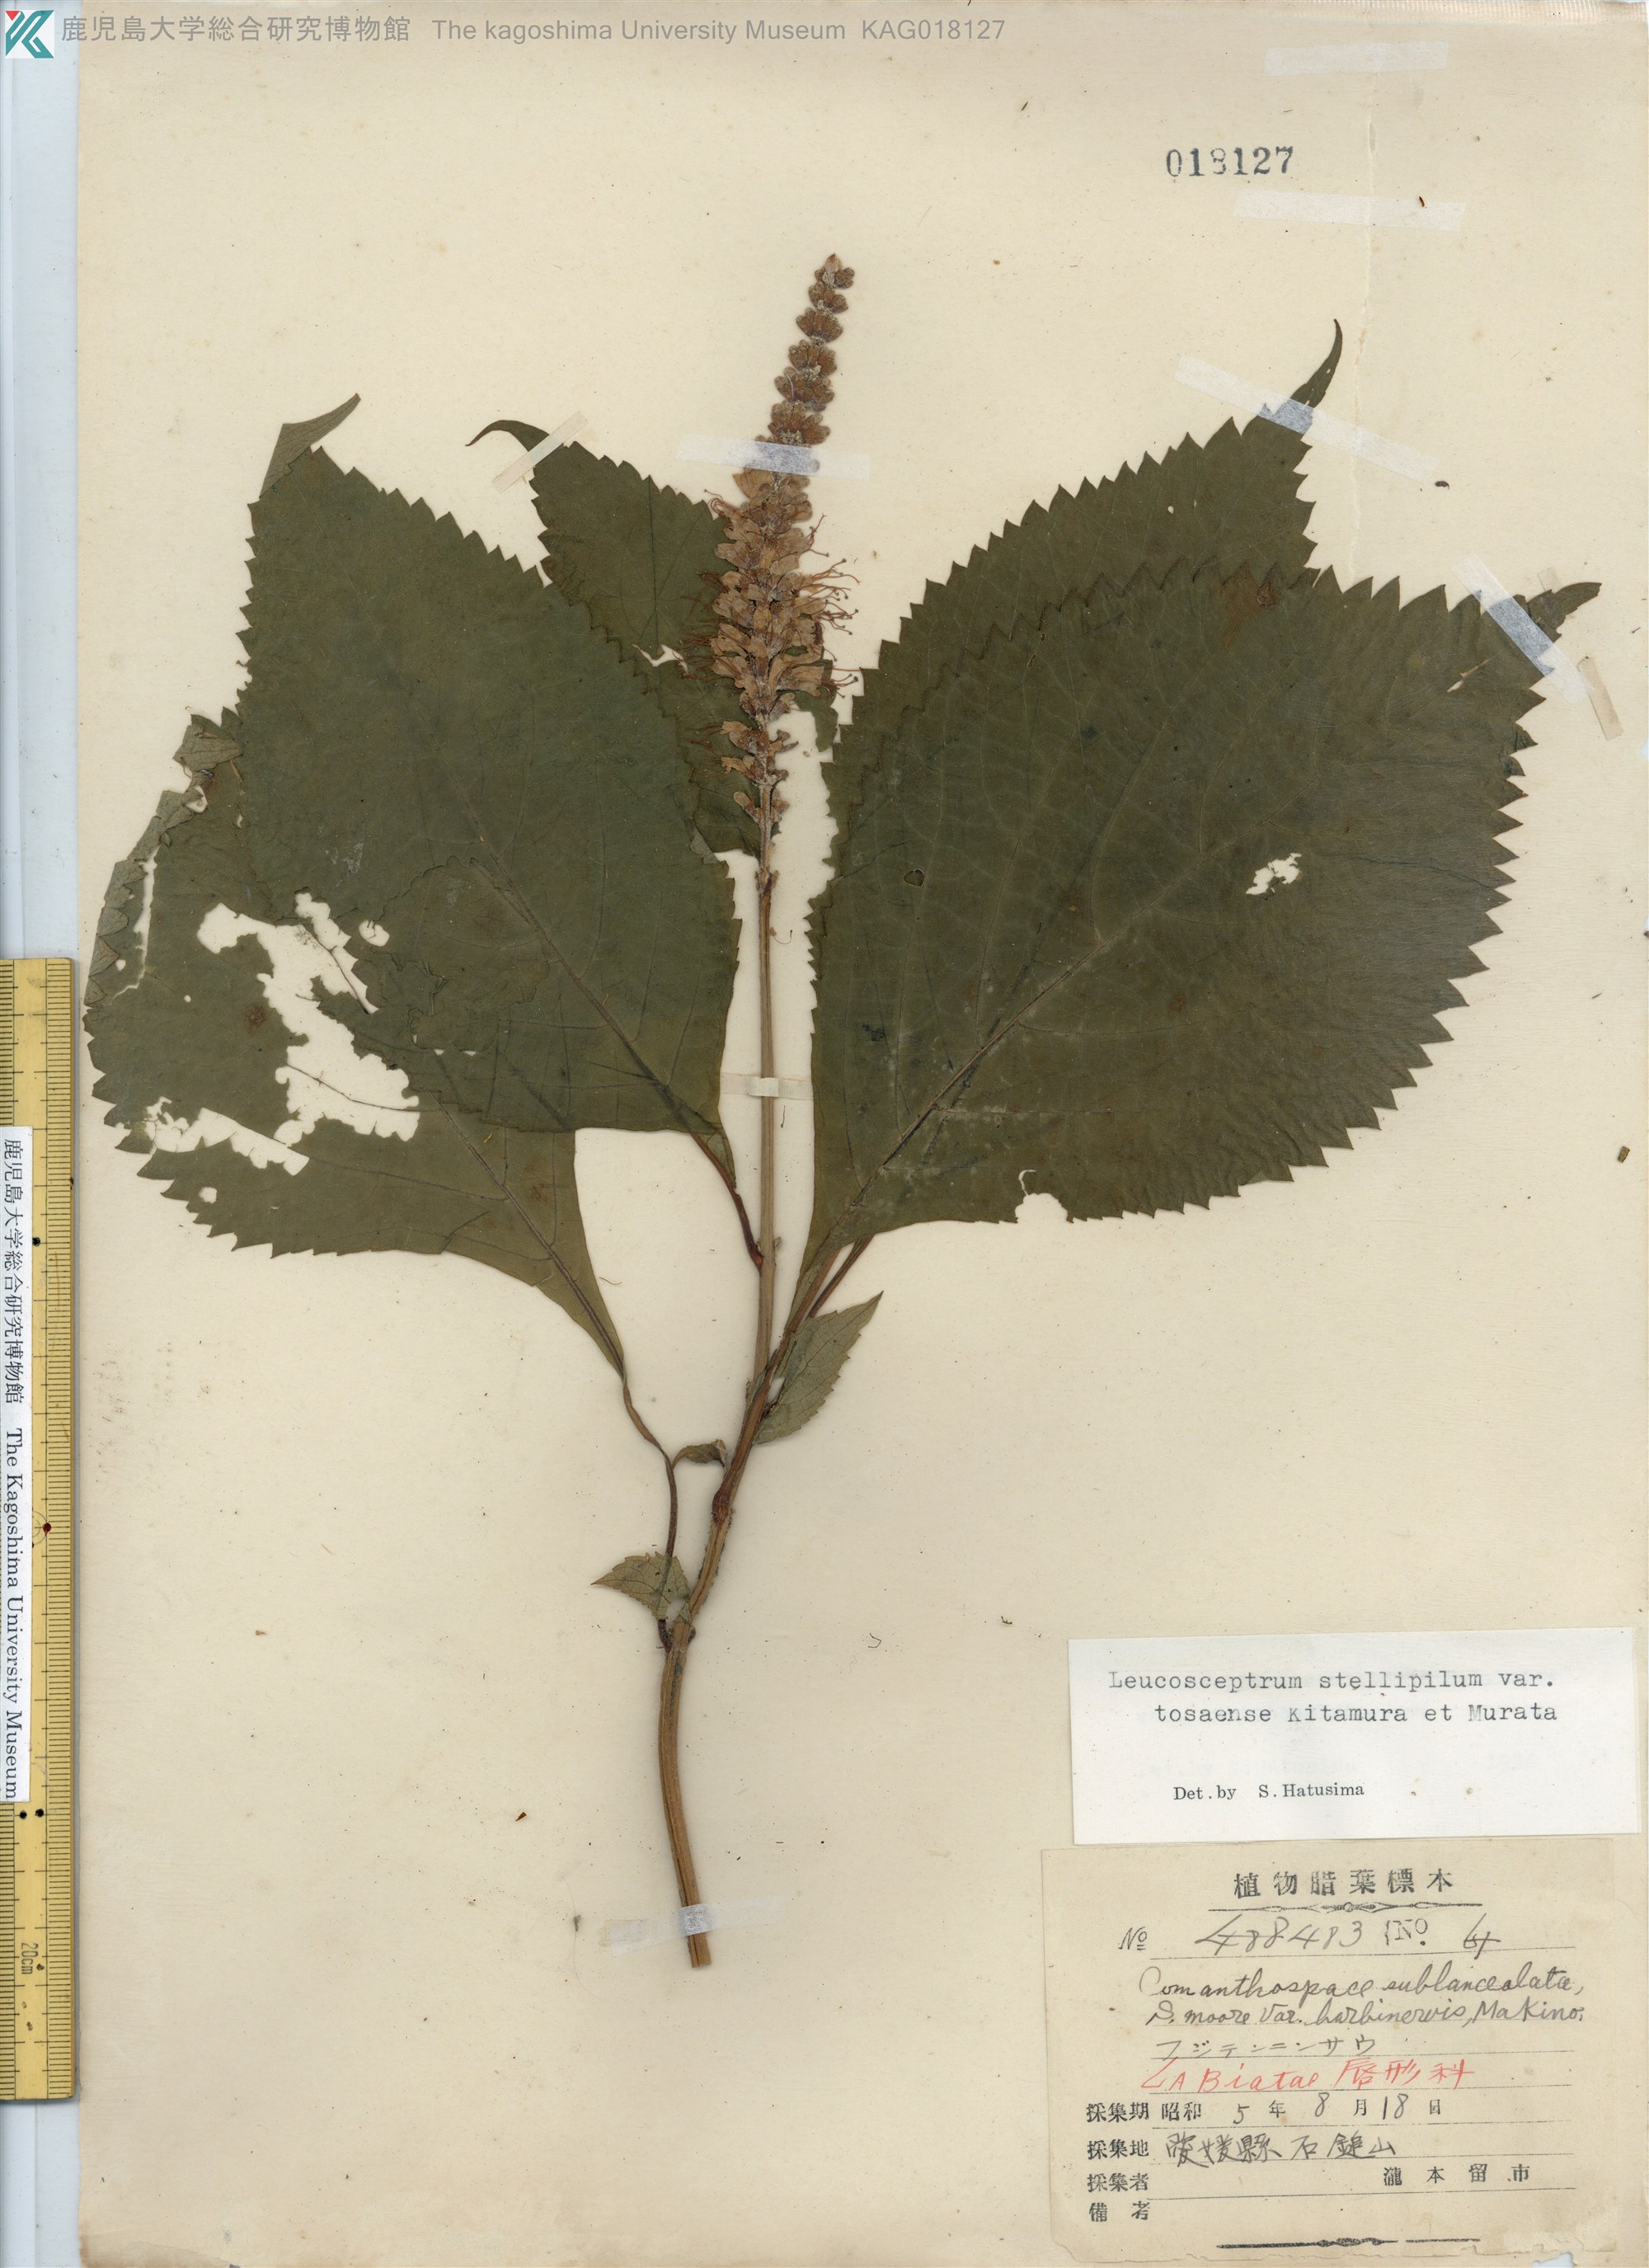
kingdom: Plantae
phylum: Tracheophyta
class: Magnoliopsida
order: Lamiales
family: Lamiaceae
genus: Comanthosphace
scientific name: Comanthosphace japonica
